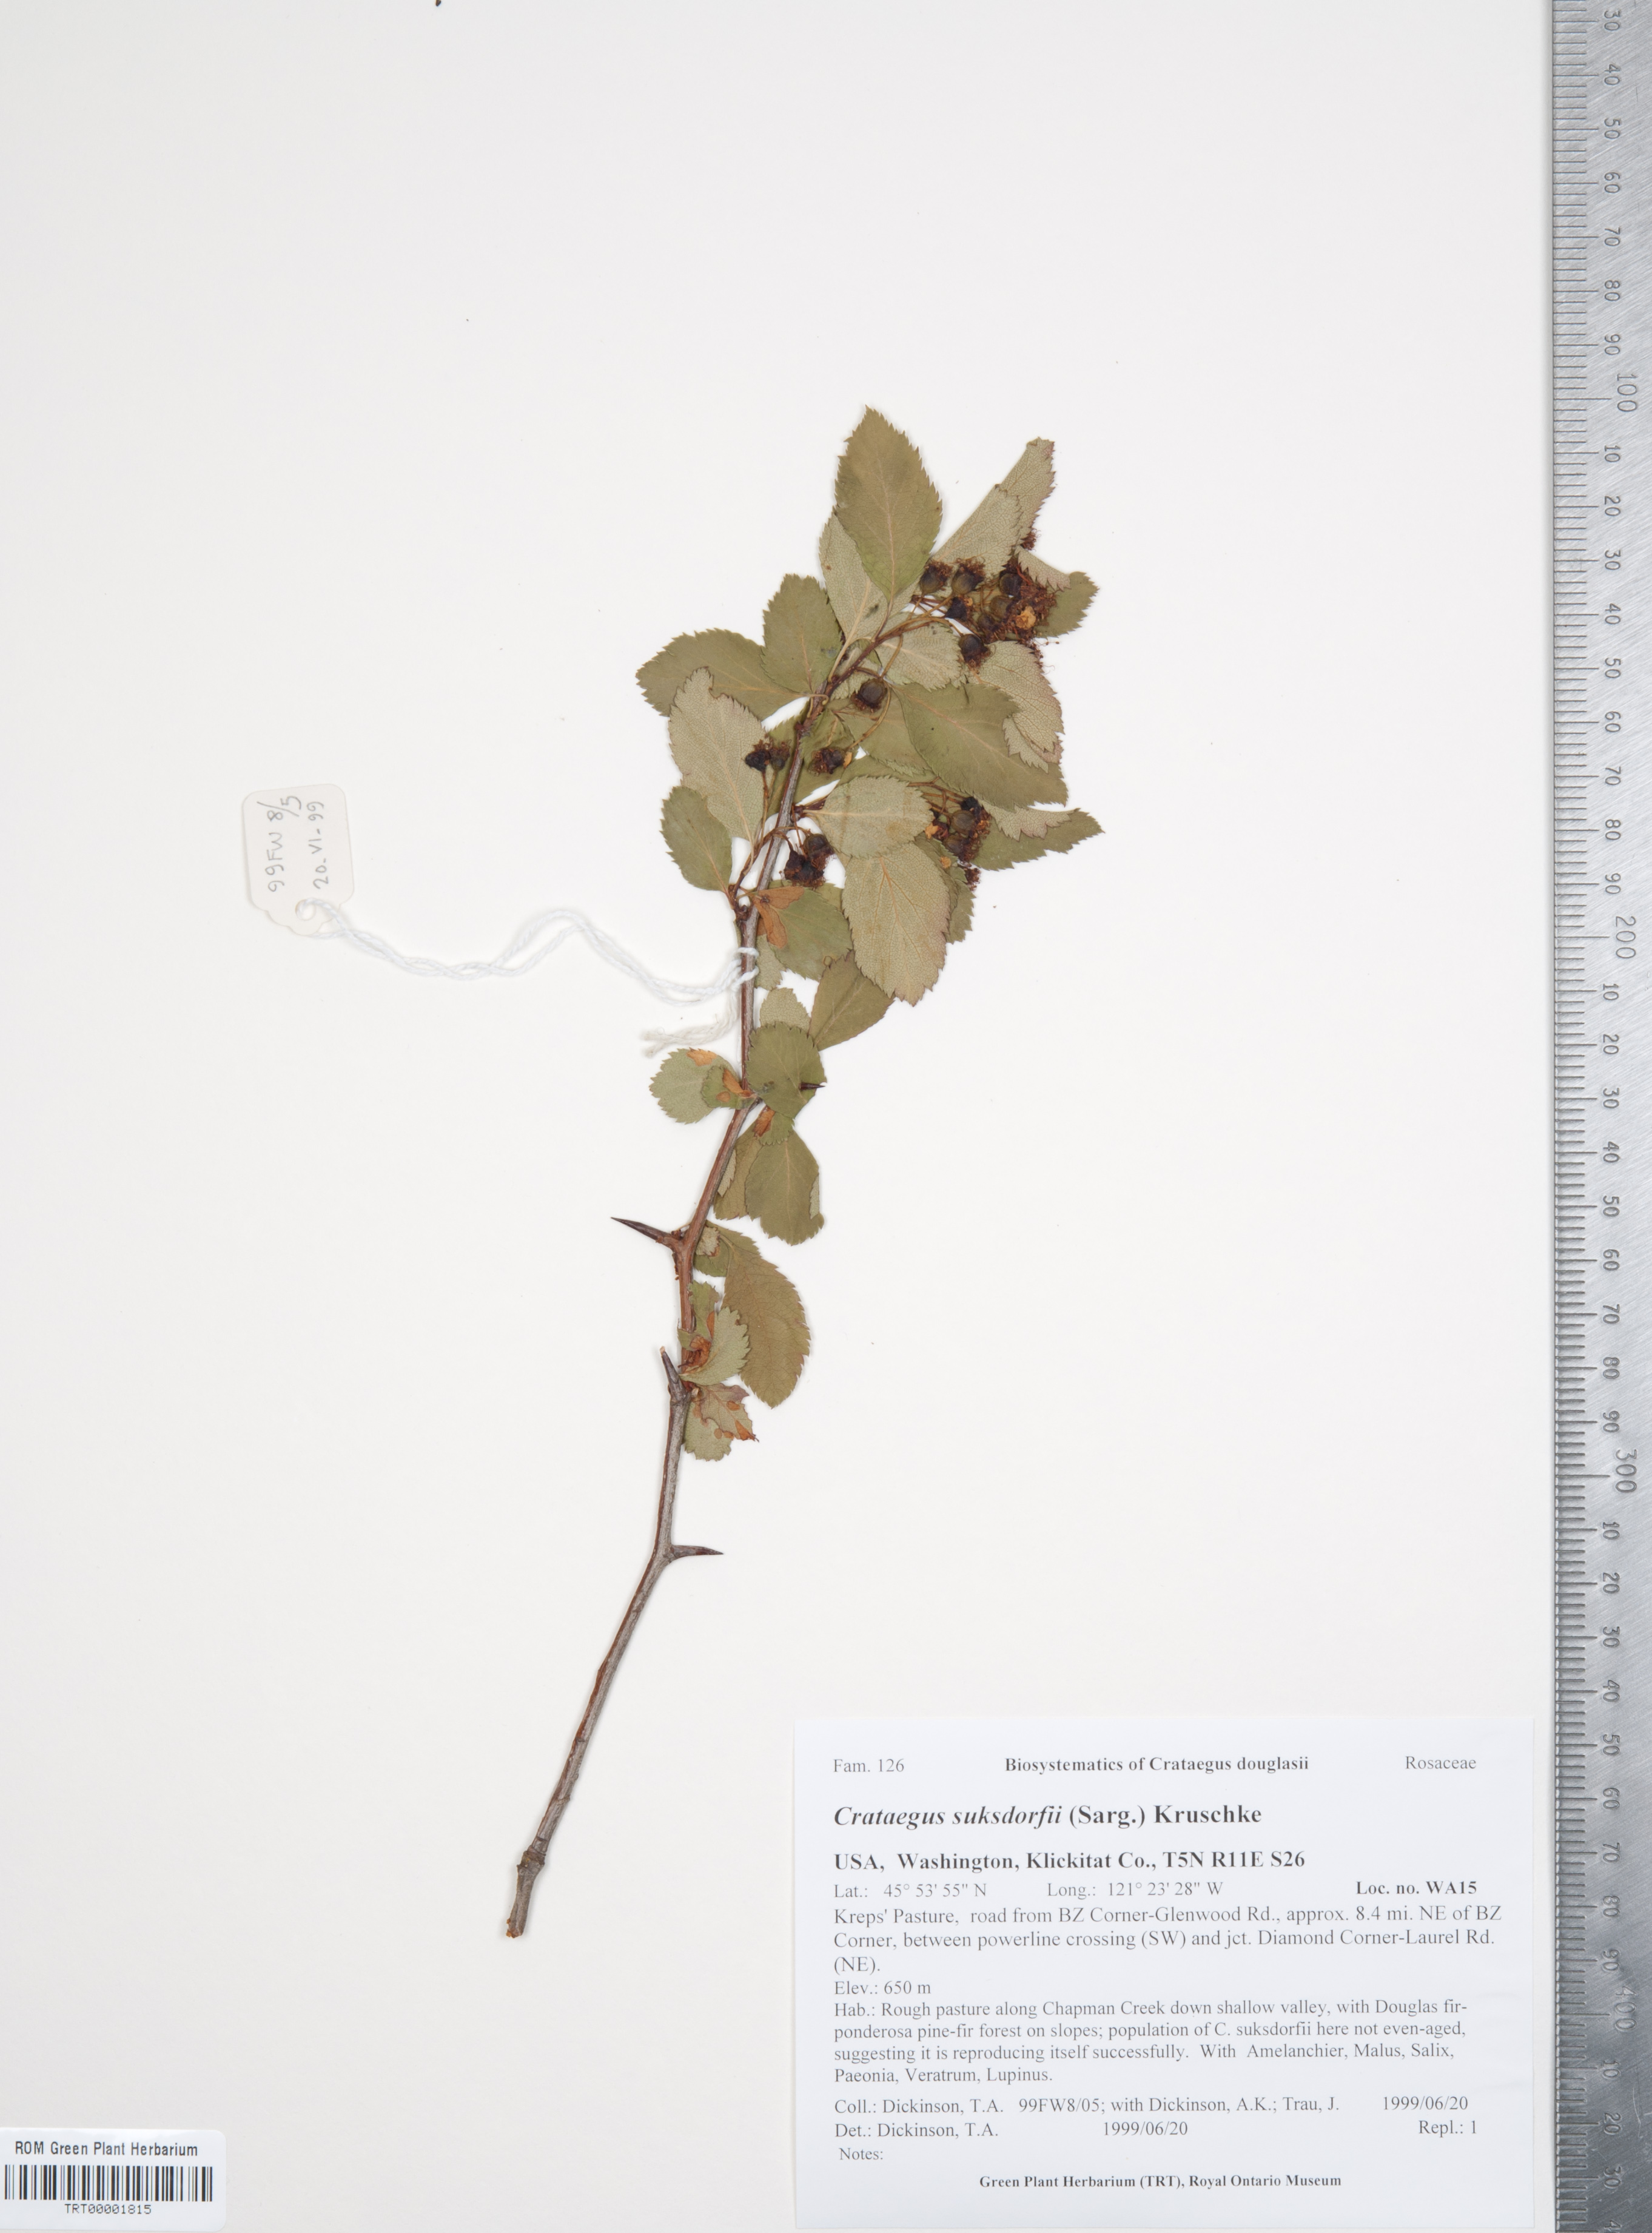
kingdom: Plantae
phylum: Tracheophyta
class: Magnoliopsida
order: Rosales
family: Rosaceae
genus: Crataegus
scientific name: Crataegus gaylussacia
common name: Huckleberry hawthorn
